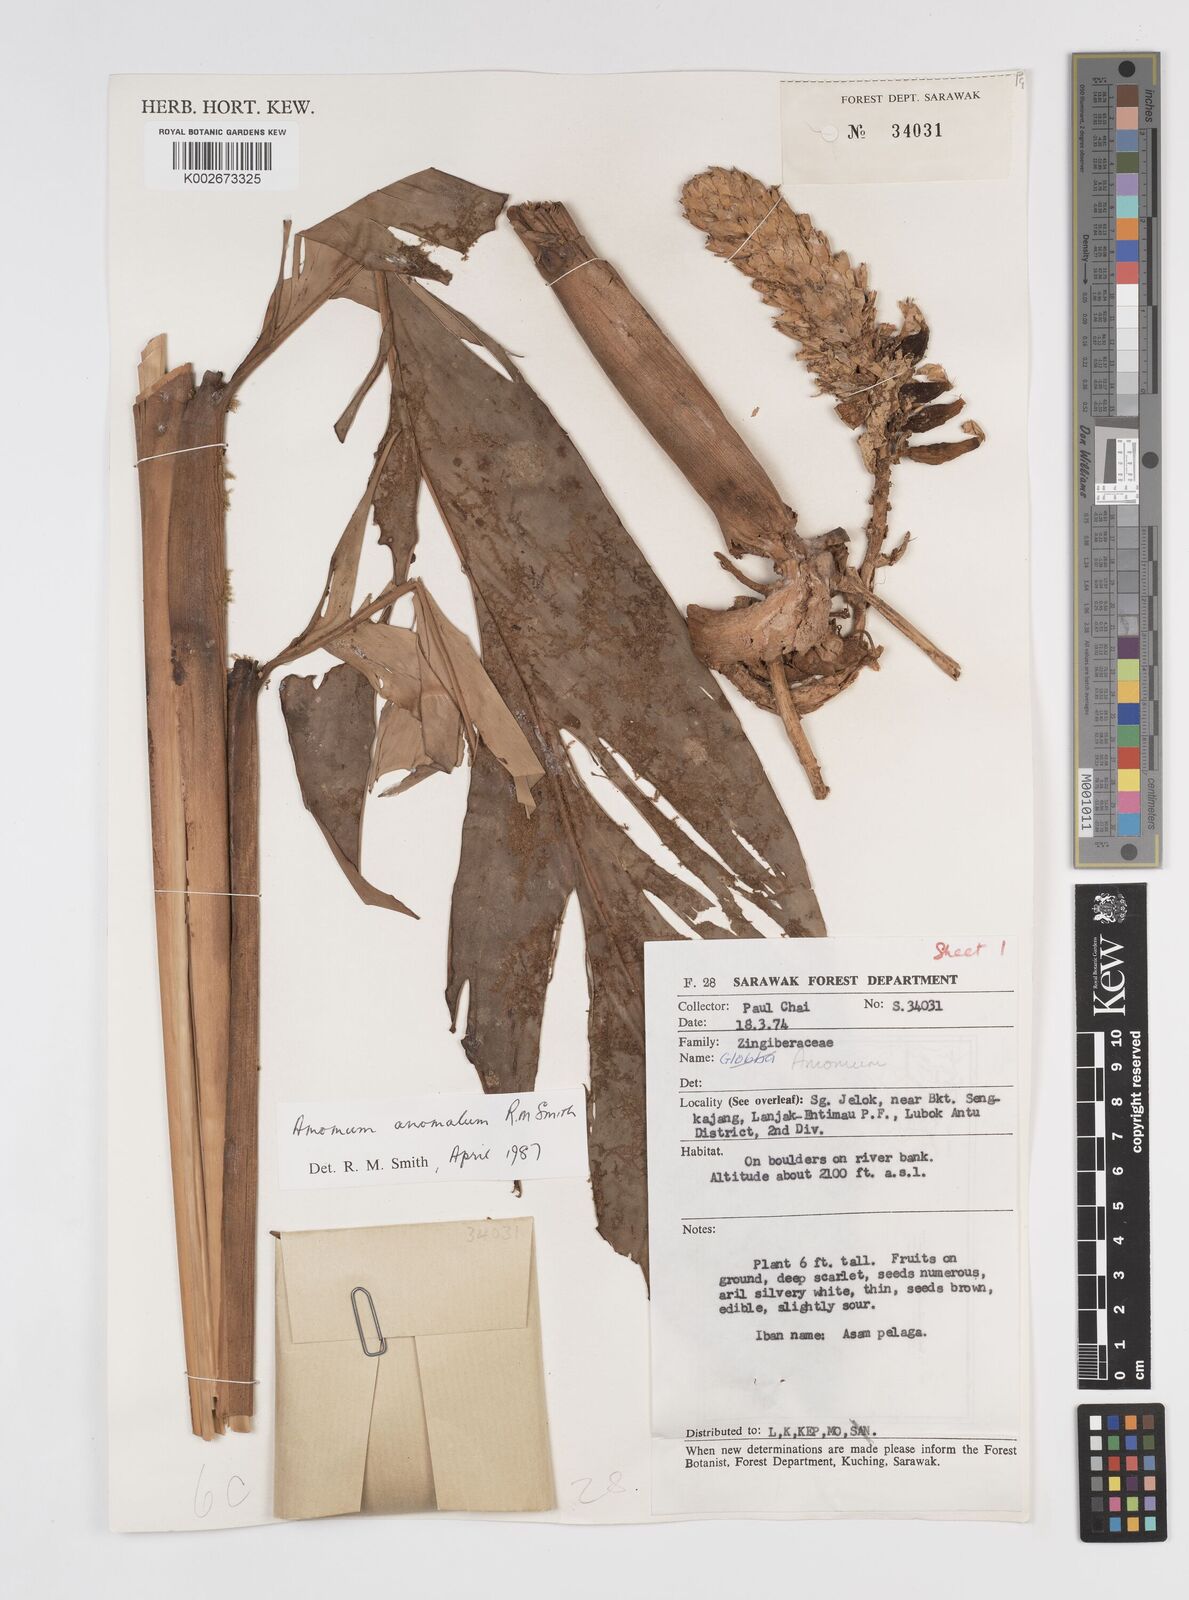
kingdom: Plantae
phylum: Tracheophyta
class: Liliopsida
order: Zingiberales
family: Zingiberaceae
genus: Sulettaria
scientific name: Sulettaria anomala
